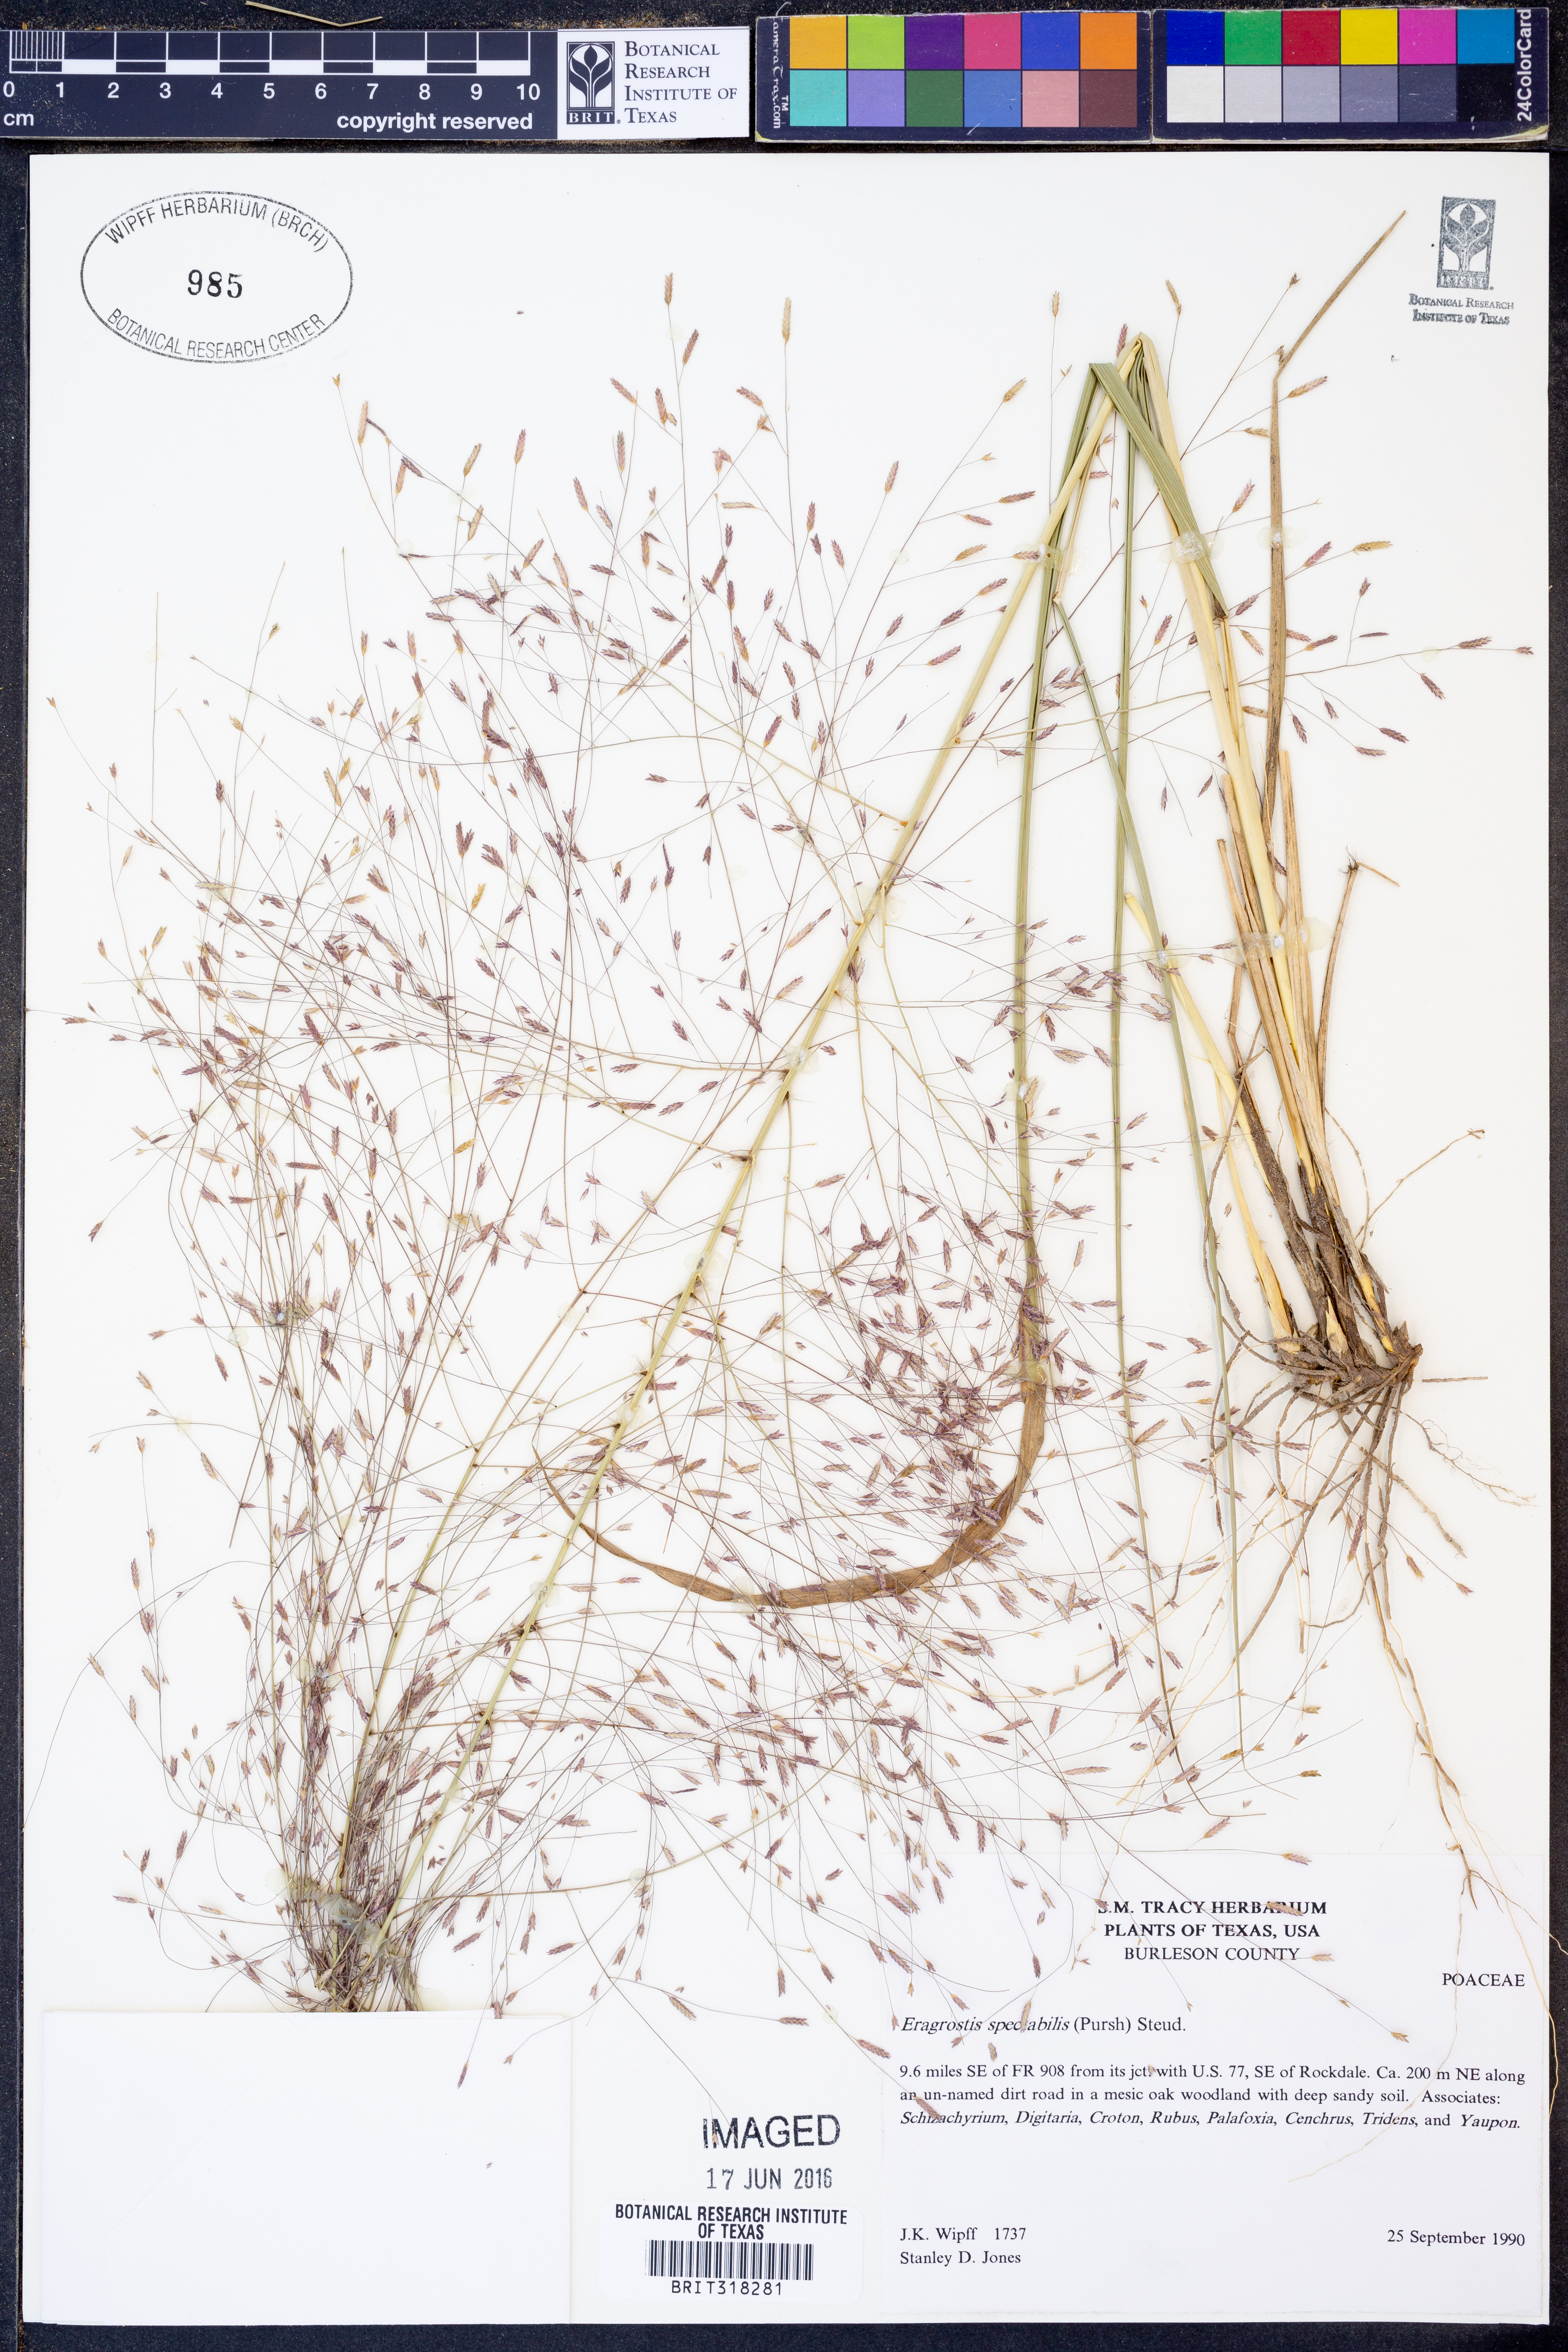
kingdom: Plantae
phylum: Tracheophyta
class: Liliopsida
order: Poales
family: Poaceae
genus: Eragrostis
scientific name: Eragrostis spectabilis
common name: Petticoat-climber
